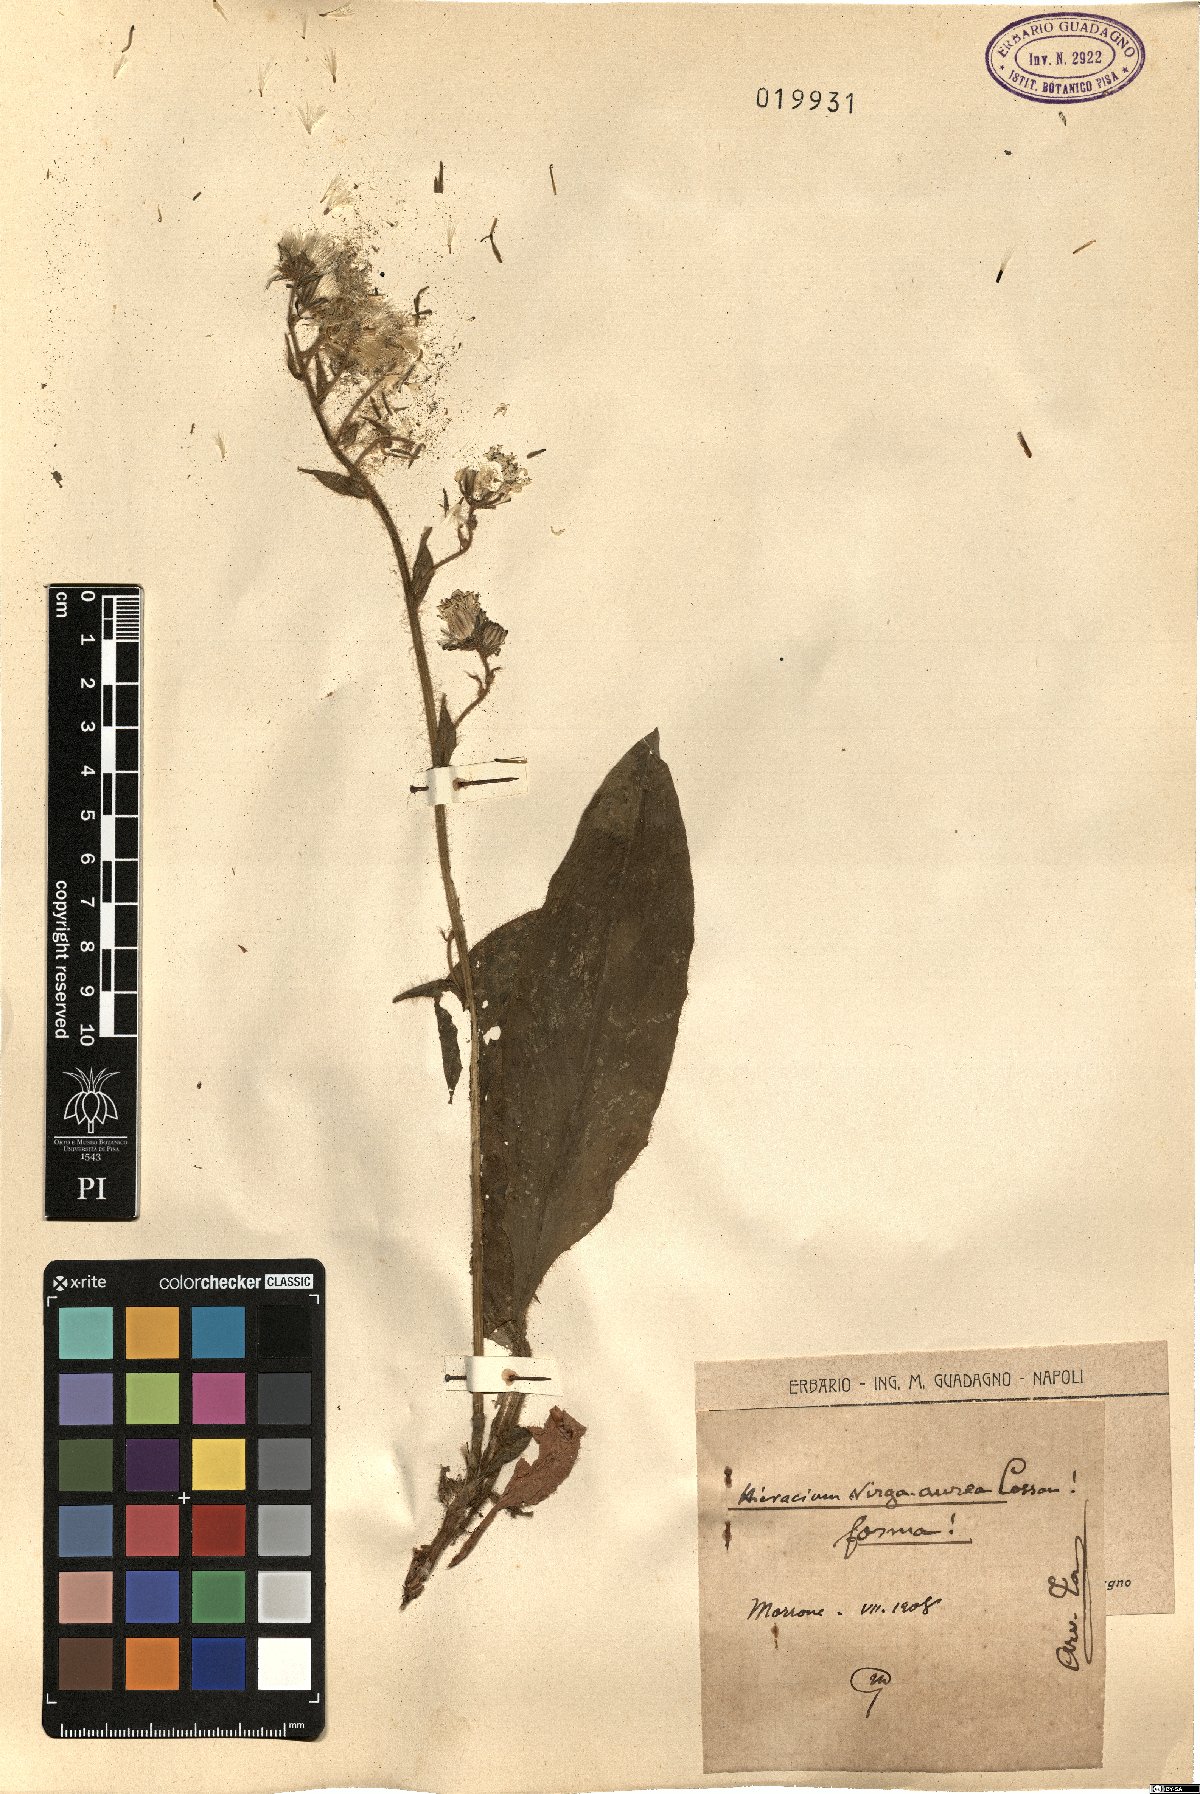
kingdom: Plantae
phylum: Tracheophyta
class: Magnoliopsida
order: Asterales
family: Asteraceae
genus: Hieracium
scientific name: Hieracium racemosum
